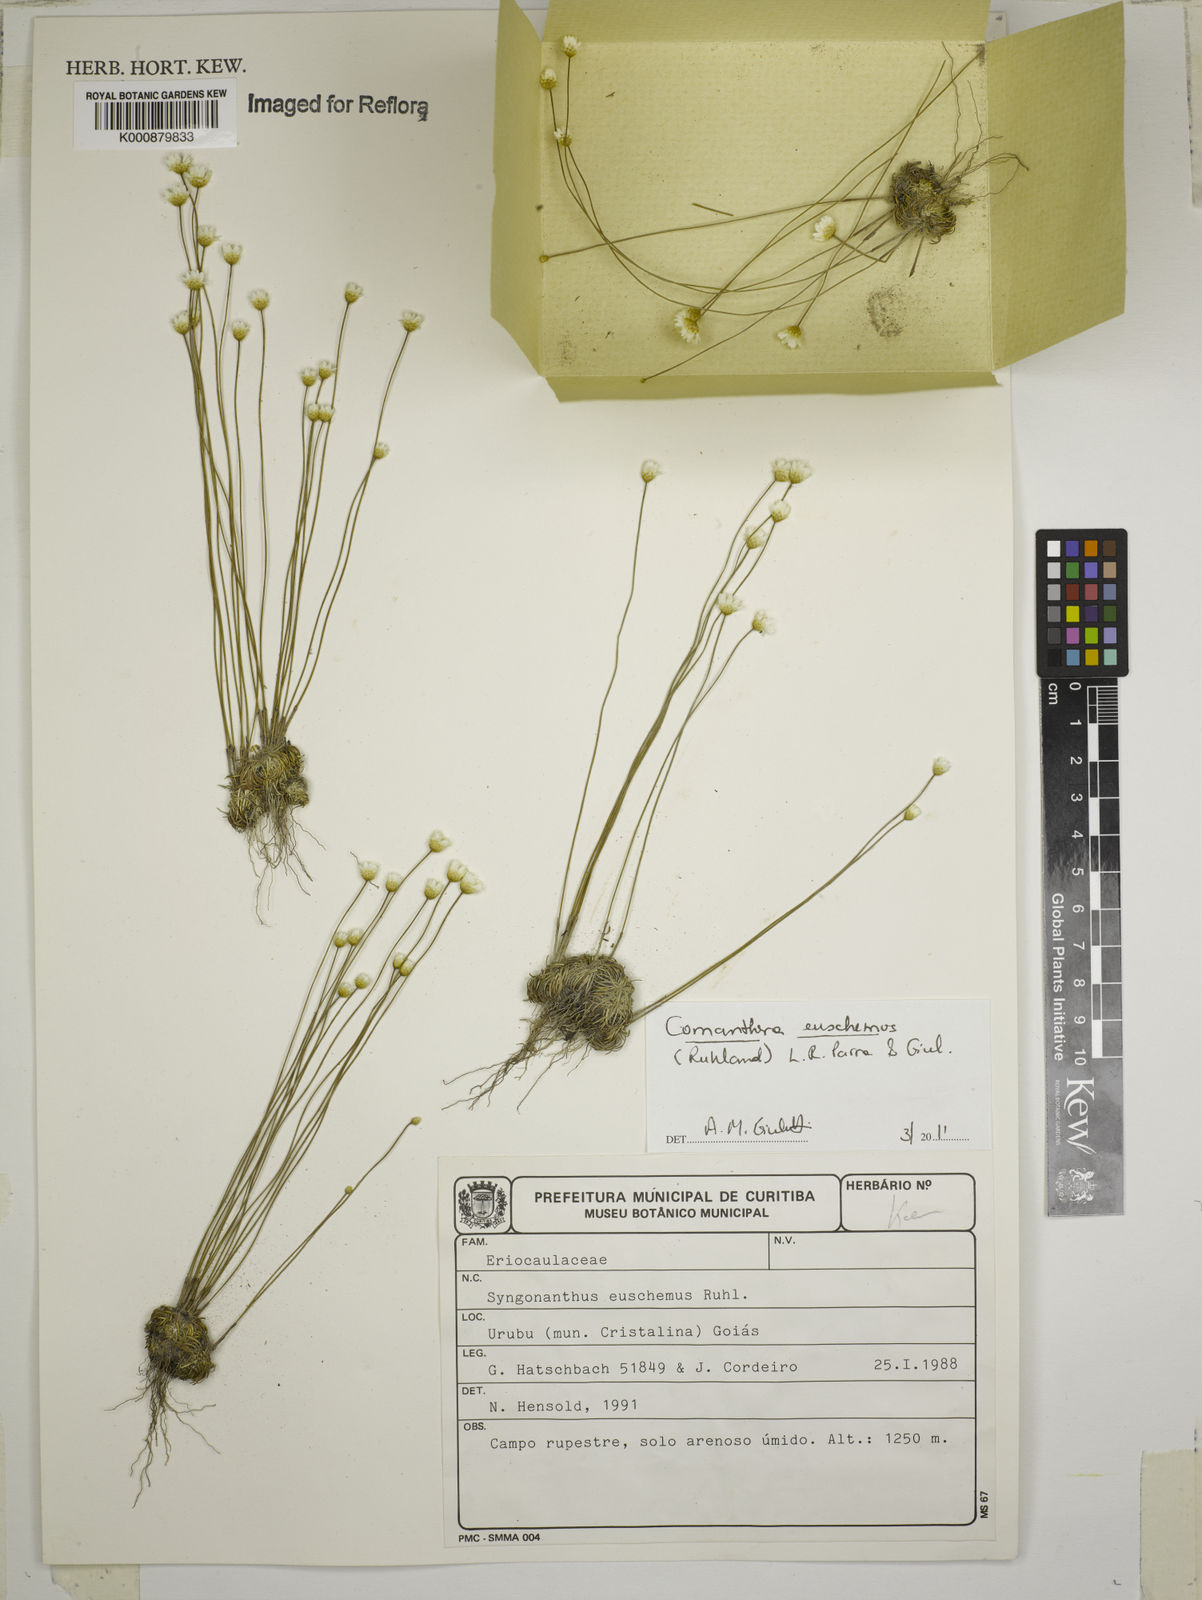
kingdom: Plantae
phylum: Tracheophyta
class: Liliopsida
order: Poales
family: Eriocaulaceae
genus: Comanthera
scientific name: Comanthera euschemus
